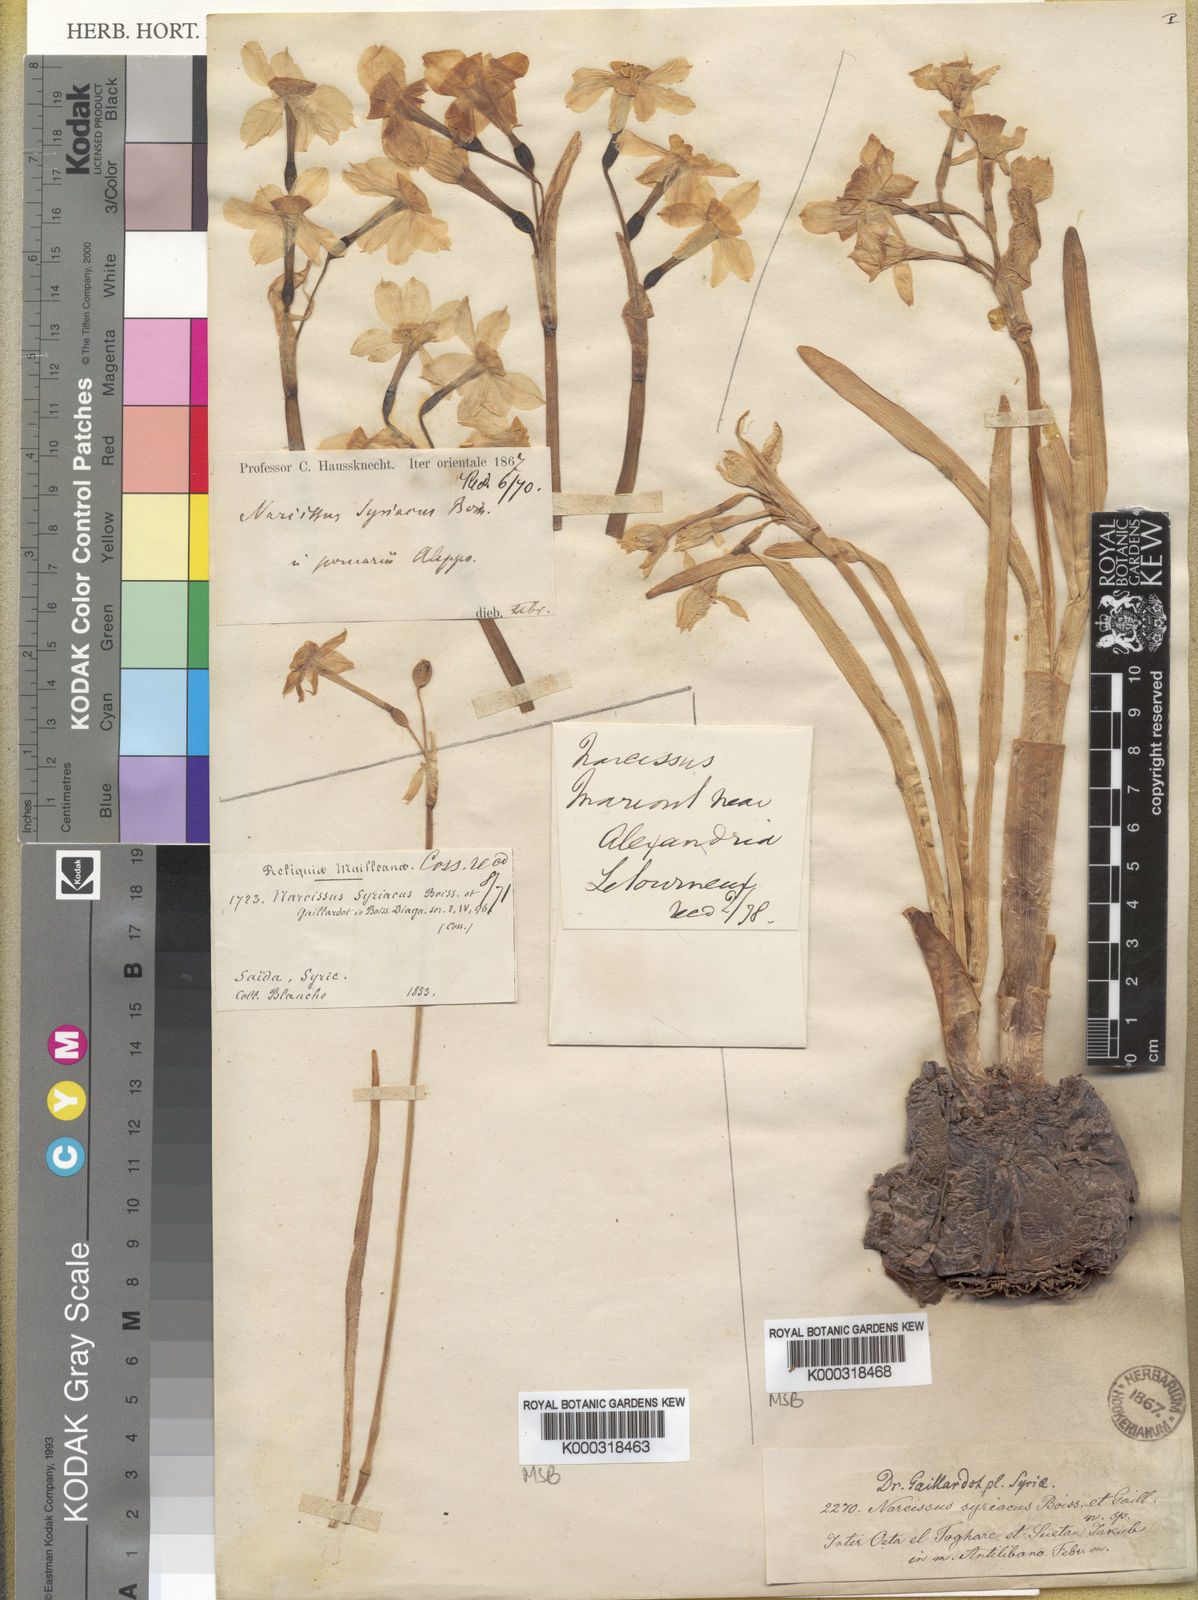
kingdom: Plantae
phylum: Tracheophyta
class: Liliopsida
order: Asparagales
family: Amaryllidaceae
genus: Narcissus
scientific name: Narcissus tazetta
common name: Bunch-flowered daffodil
